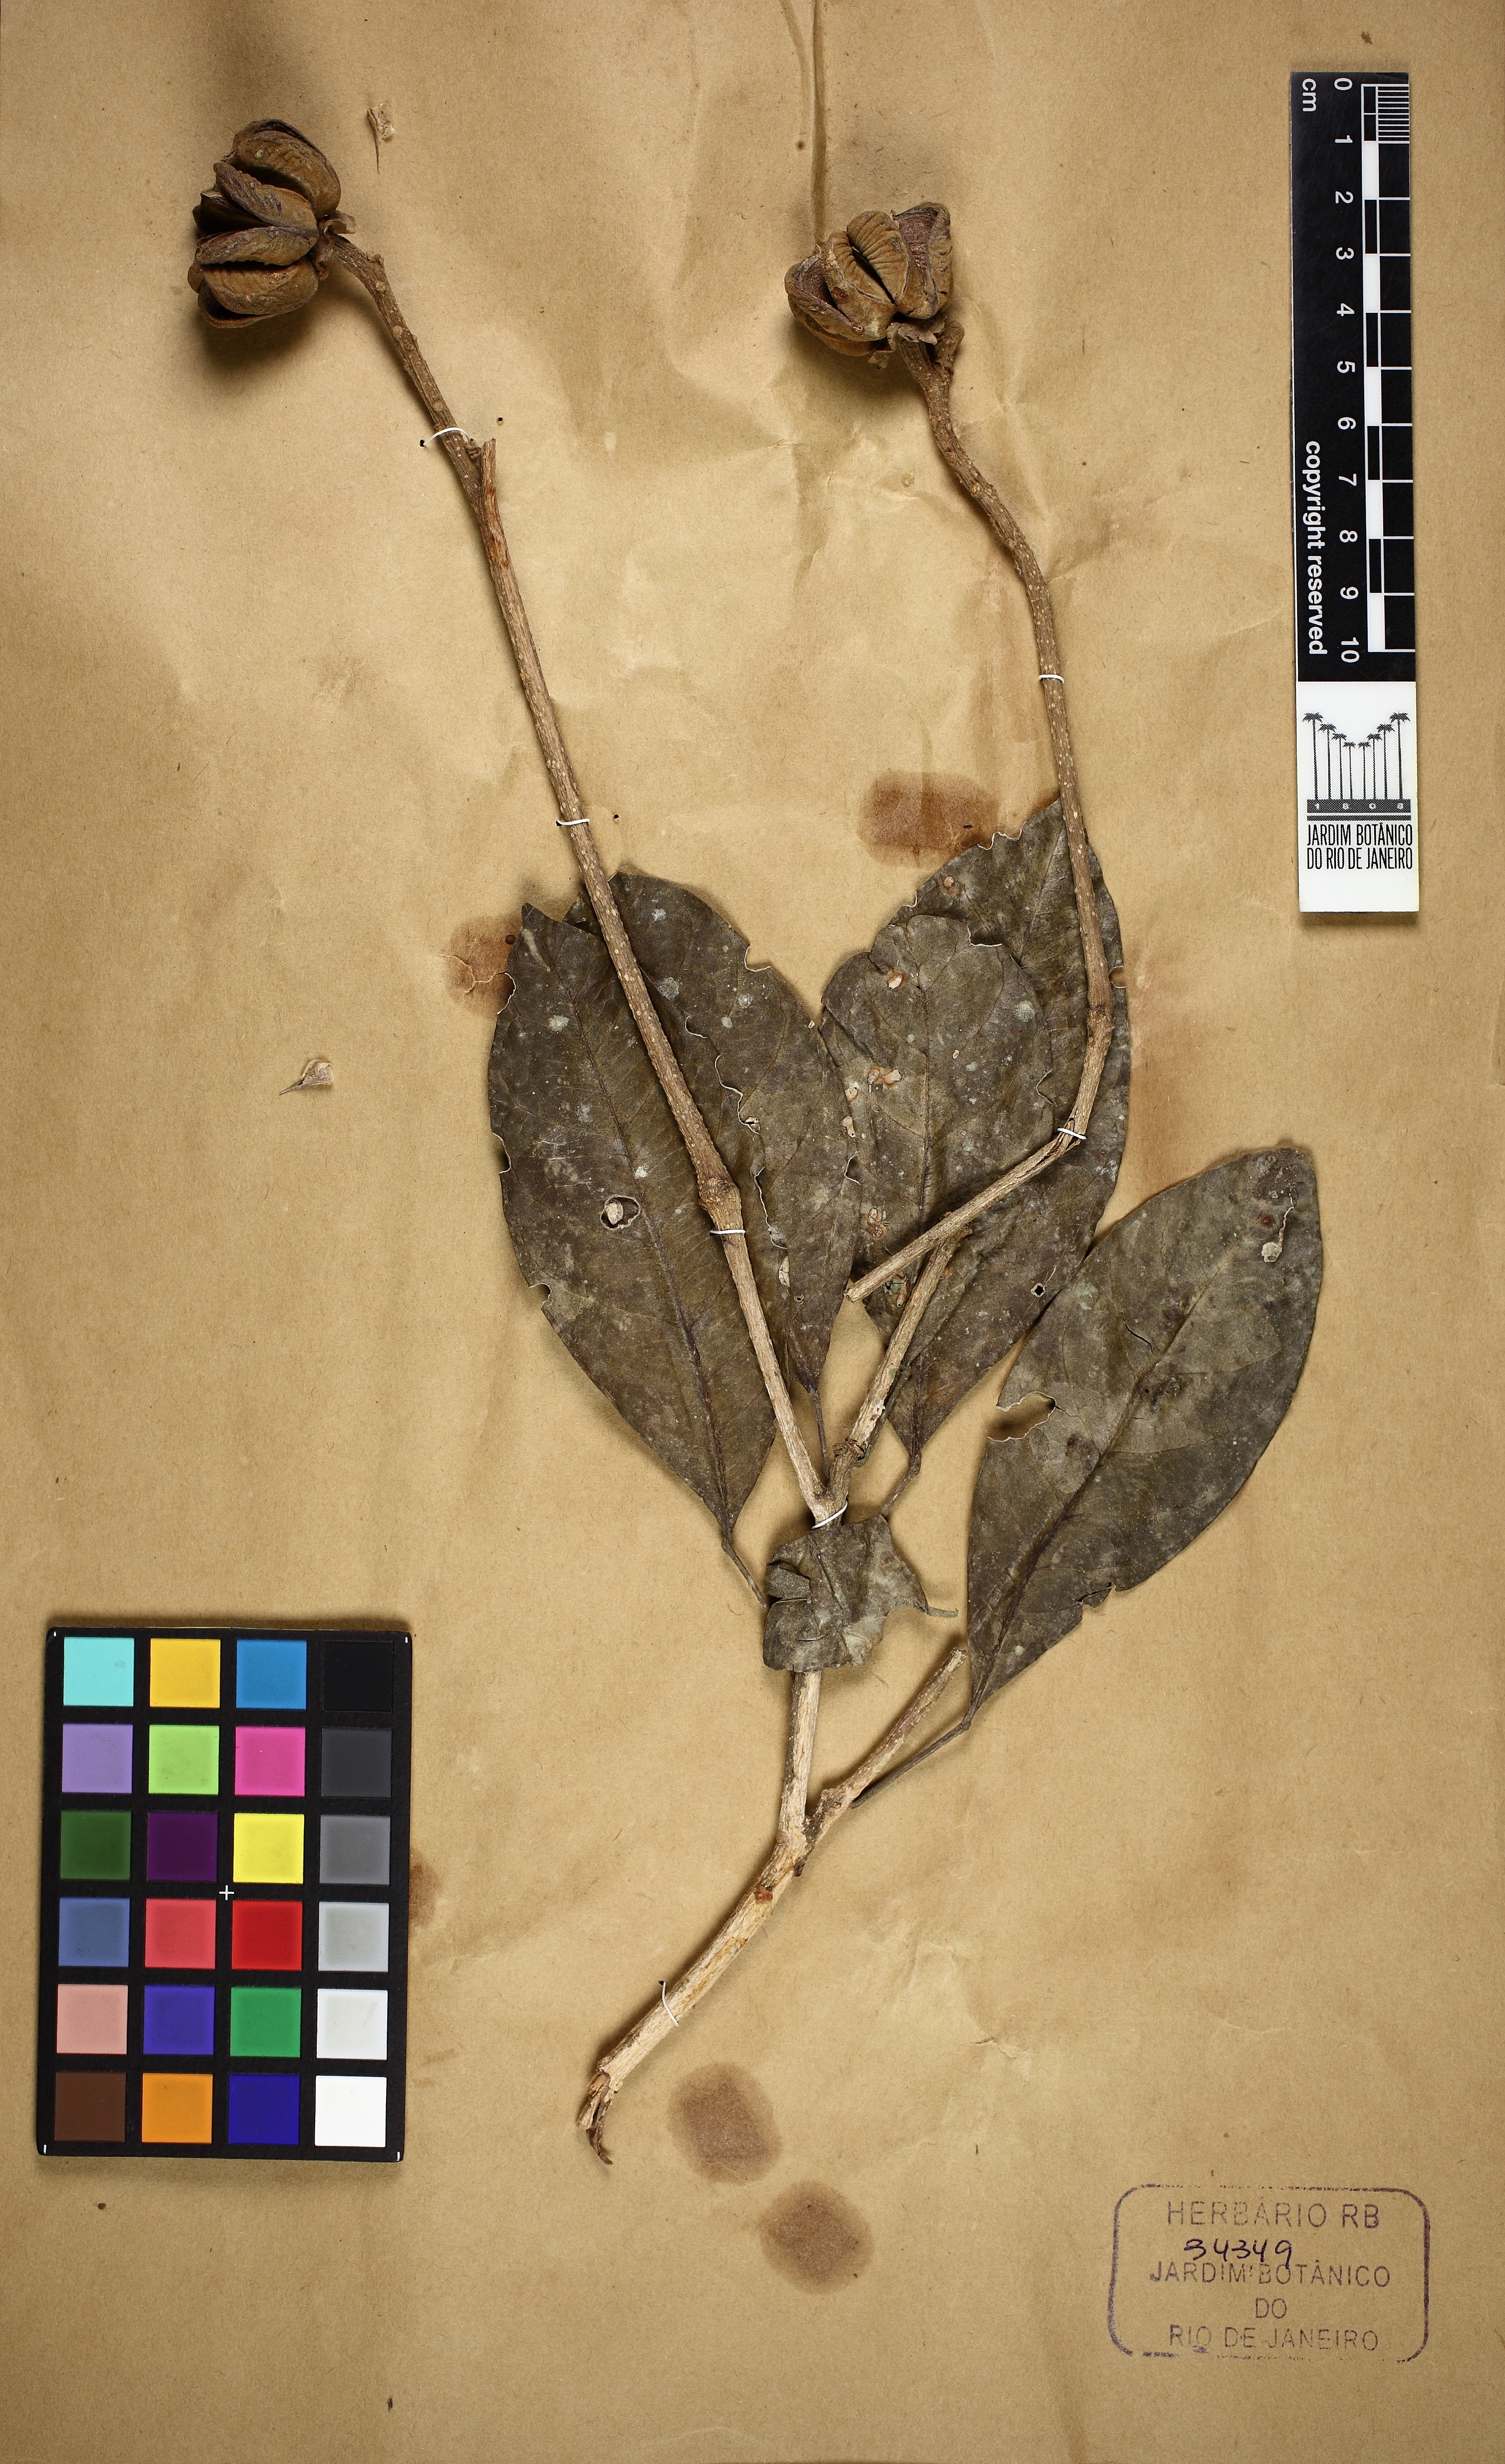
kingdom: Plantae
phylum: Tracheophyta
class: Magnoliopsida
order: Sapindales
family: Rutaceae
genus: Neoraputia
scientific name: Neoraputia alba
